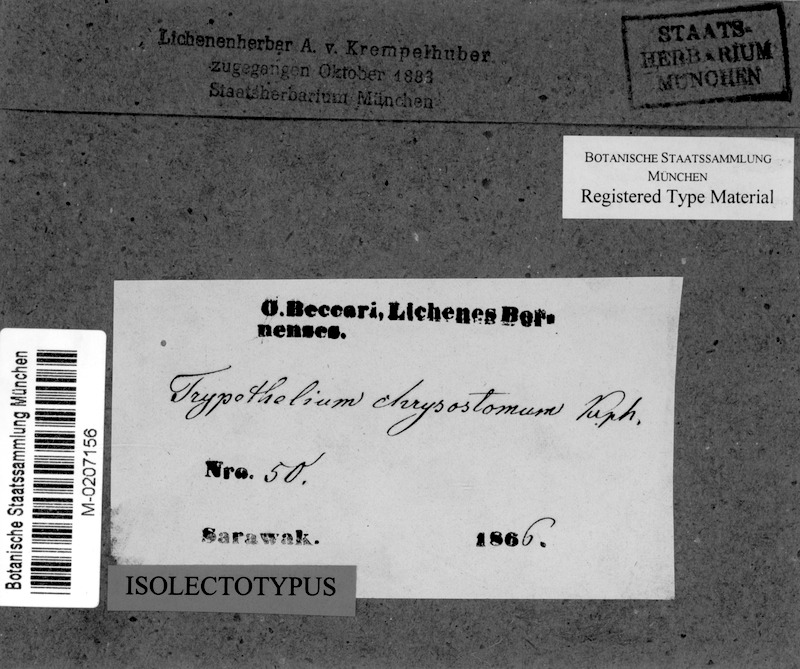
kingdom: Fungi
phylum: Ascomycota
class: Dothideomycetes
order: Trypetheliales
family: Trypetheliaceae
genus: Astrothelium
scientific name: Astrothelium cinnamomeum
